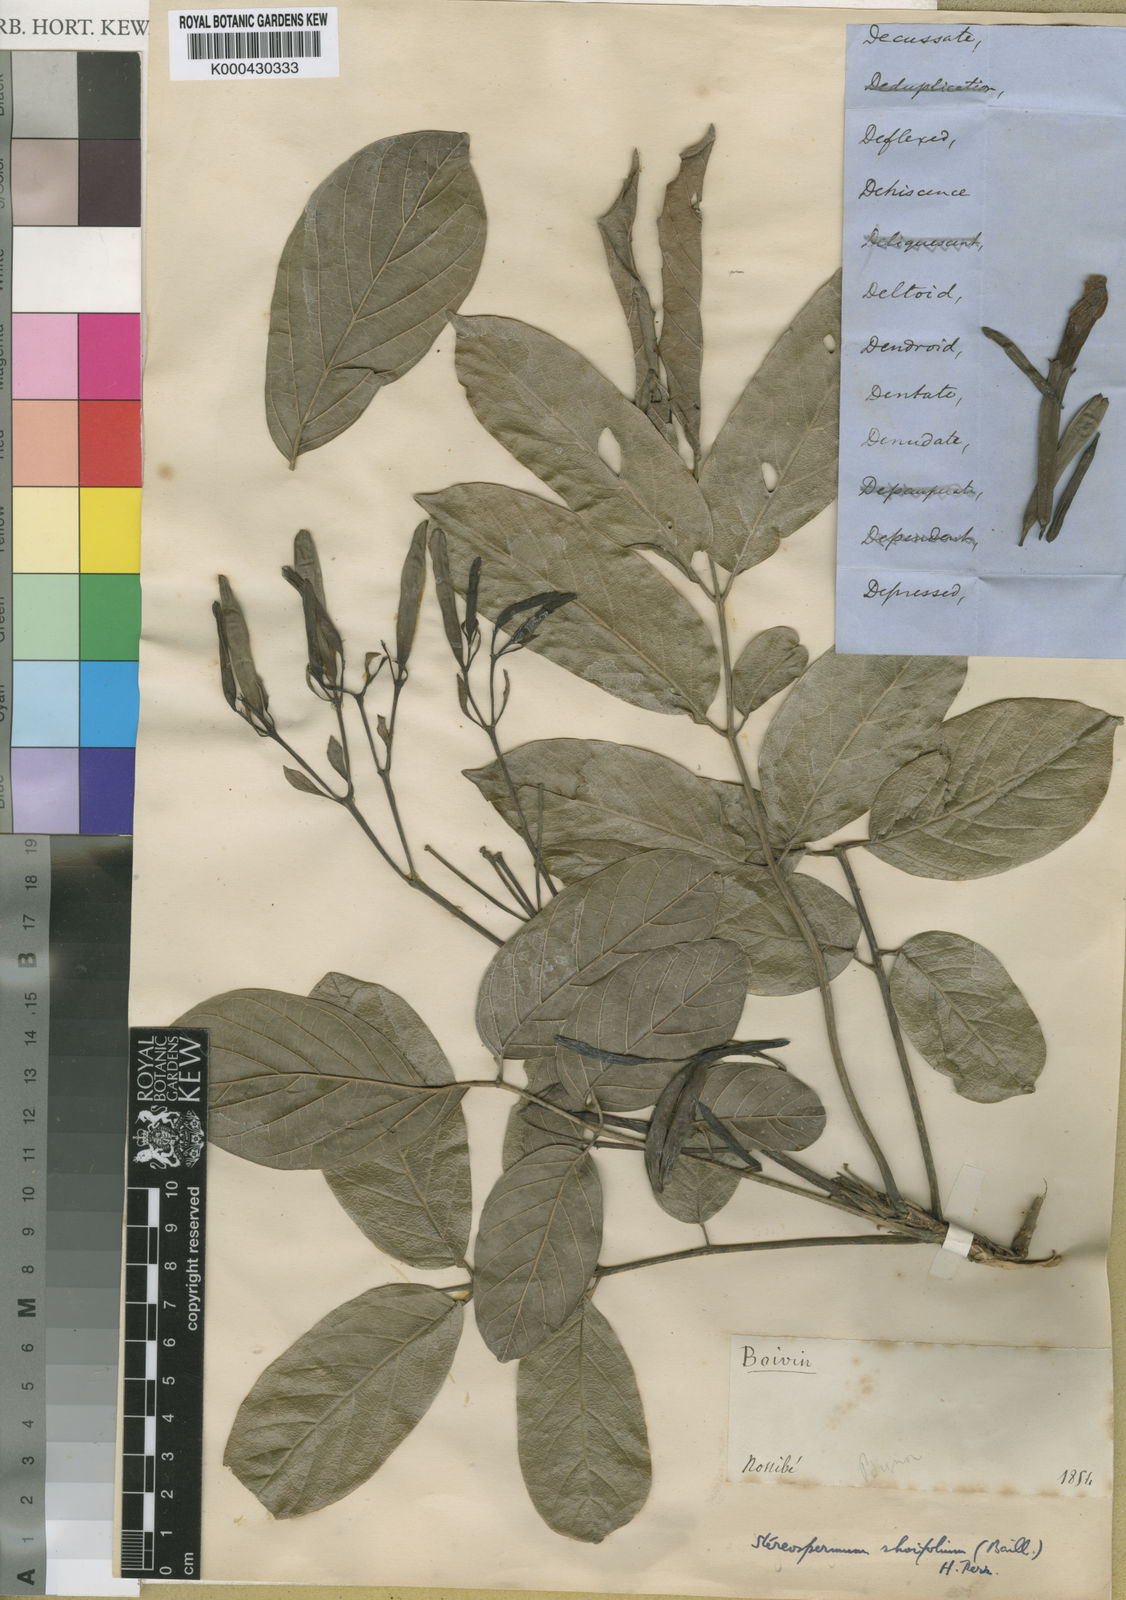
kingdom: Plantae
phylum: Tracheophyta
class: Magnoliopsida
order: Lamiales
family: Bignoniaceae
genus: Stereospermum
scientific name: Stereospermum rhoifolium
